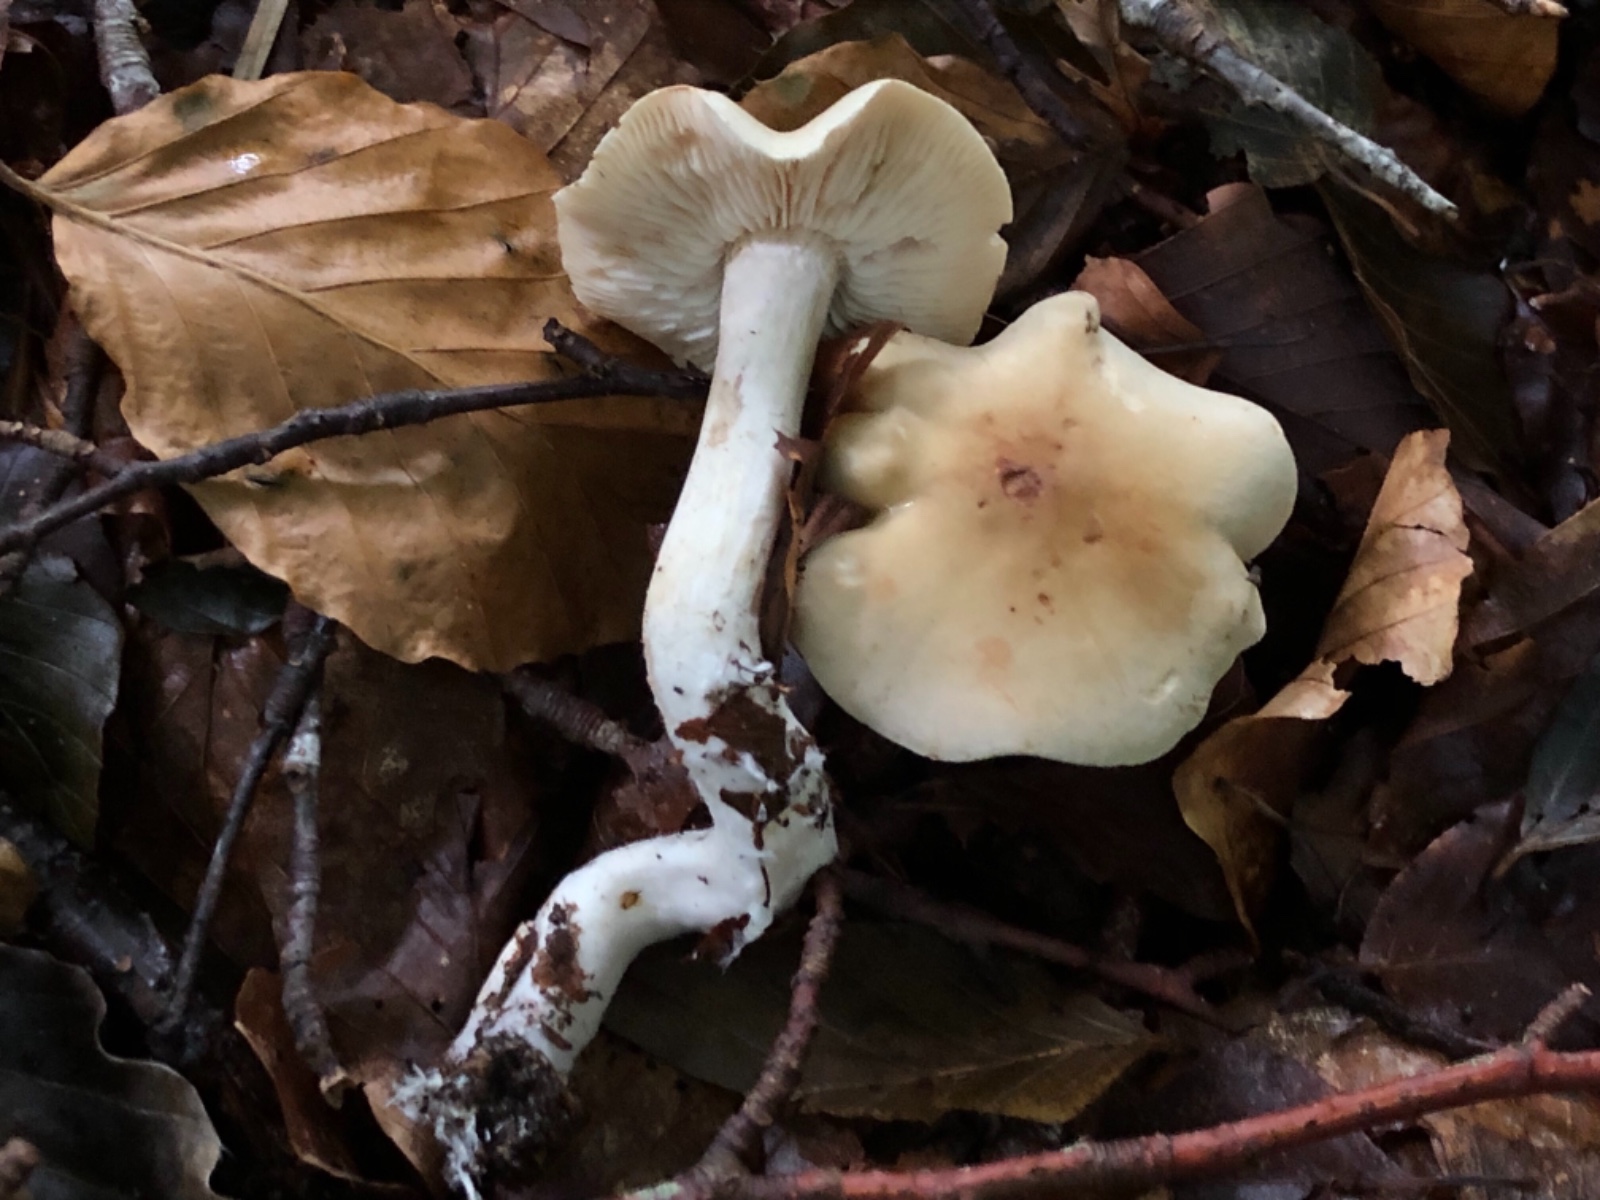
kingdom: Fungi
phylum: Basidiomycota
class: Agaricomycetes
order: Agaricales
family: Tricholomataceae
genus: Tricholoma
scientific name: Tricholoma lascivum
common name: stinkende ridderhat
